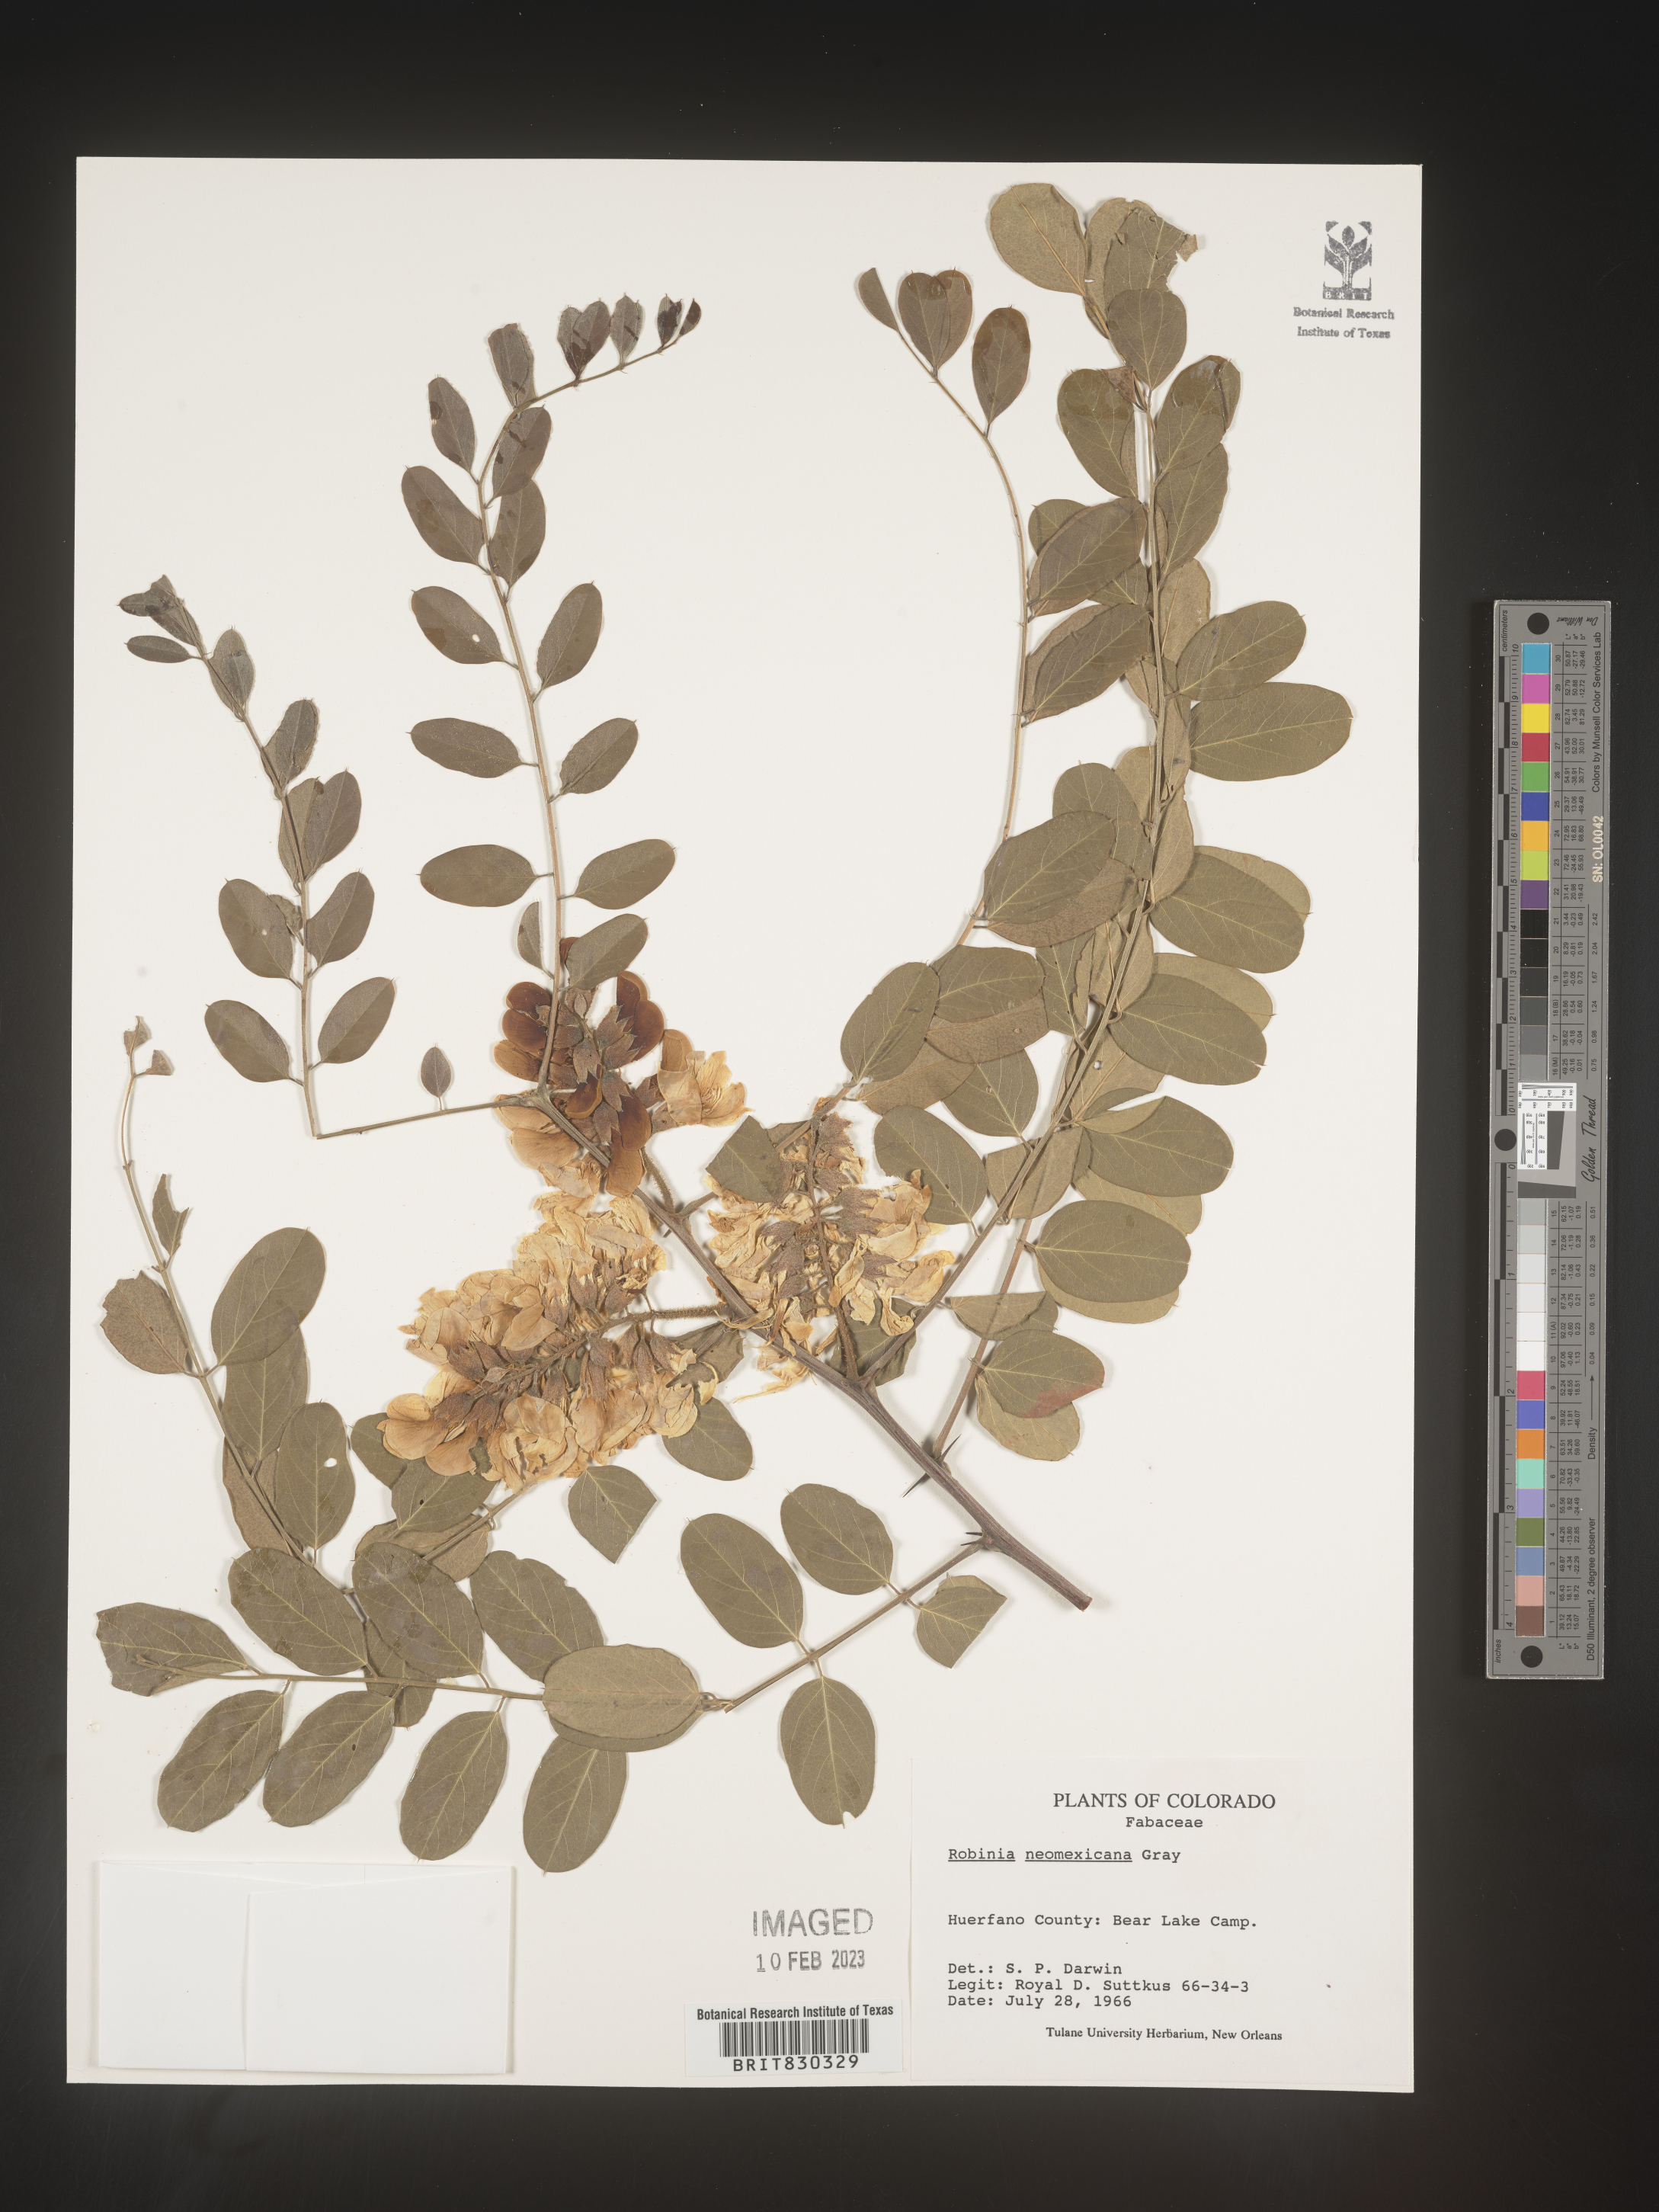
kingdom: Plantae
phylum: Tracheophyta
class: Magnoliopsida
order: Fabales
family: Fabaceae
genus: Robinia
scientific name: Robinia neomexicana
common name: New mexico locust
